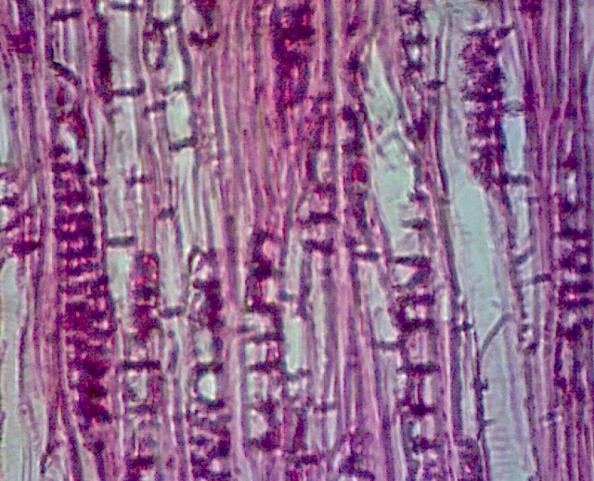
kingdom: Plantae
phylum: Tracheophyta
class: Magnoliopsida
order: Myrtales
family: Myrtaceae
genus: Myrceugenia
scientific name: Myrceugenia planipes
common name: Pitra
